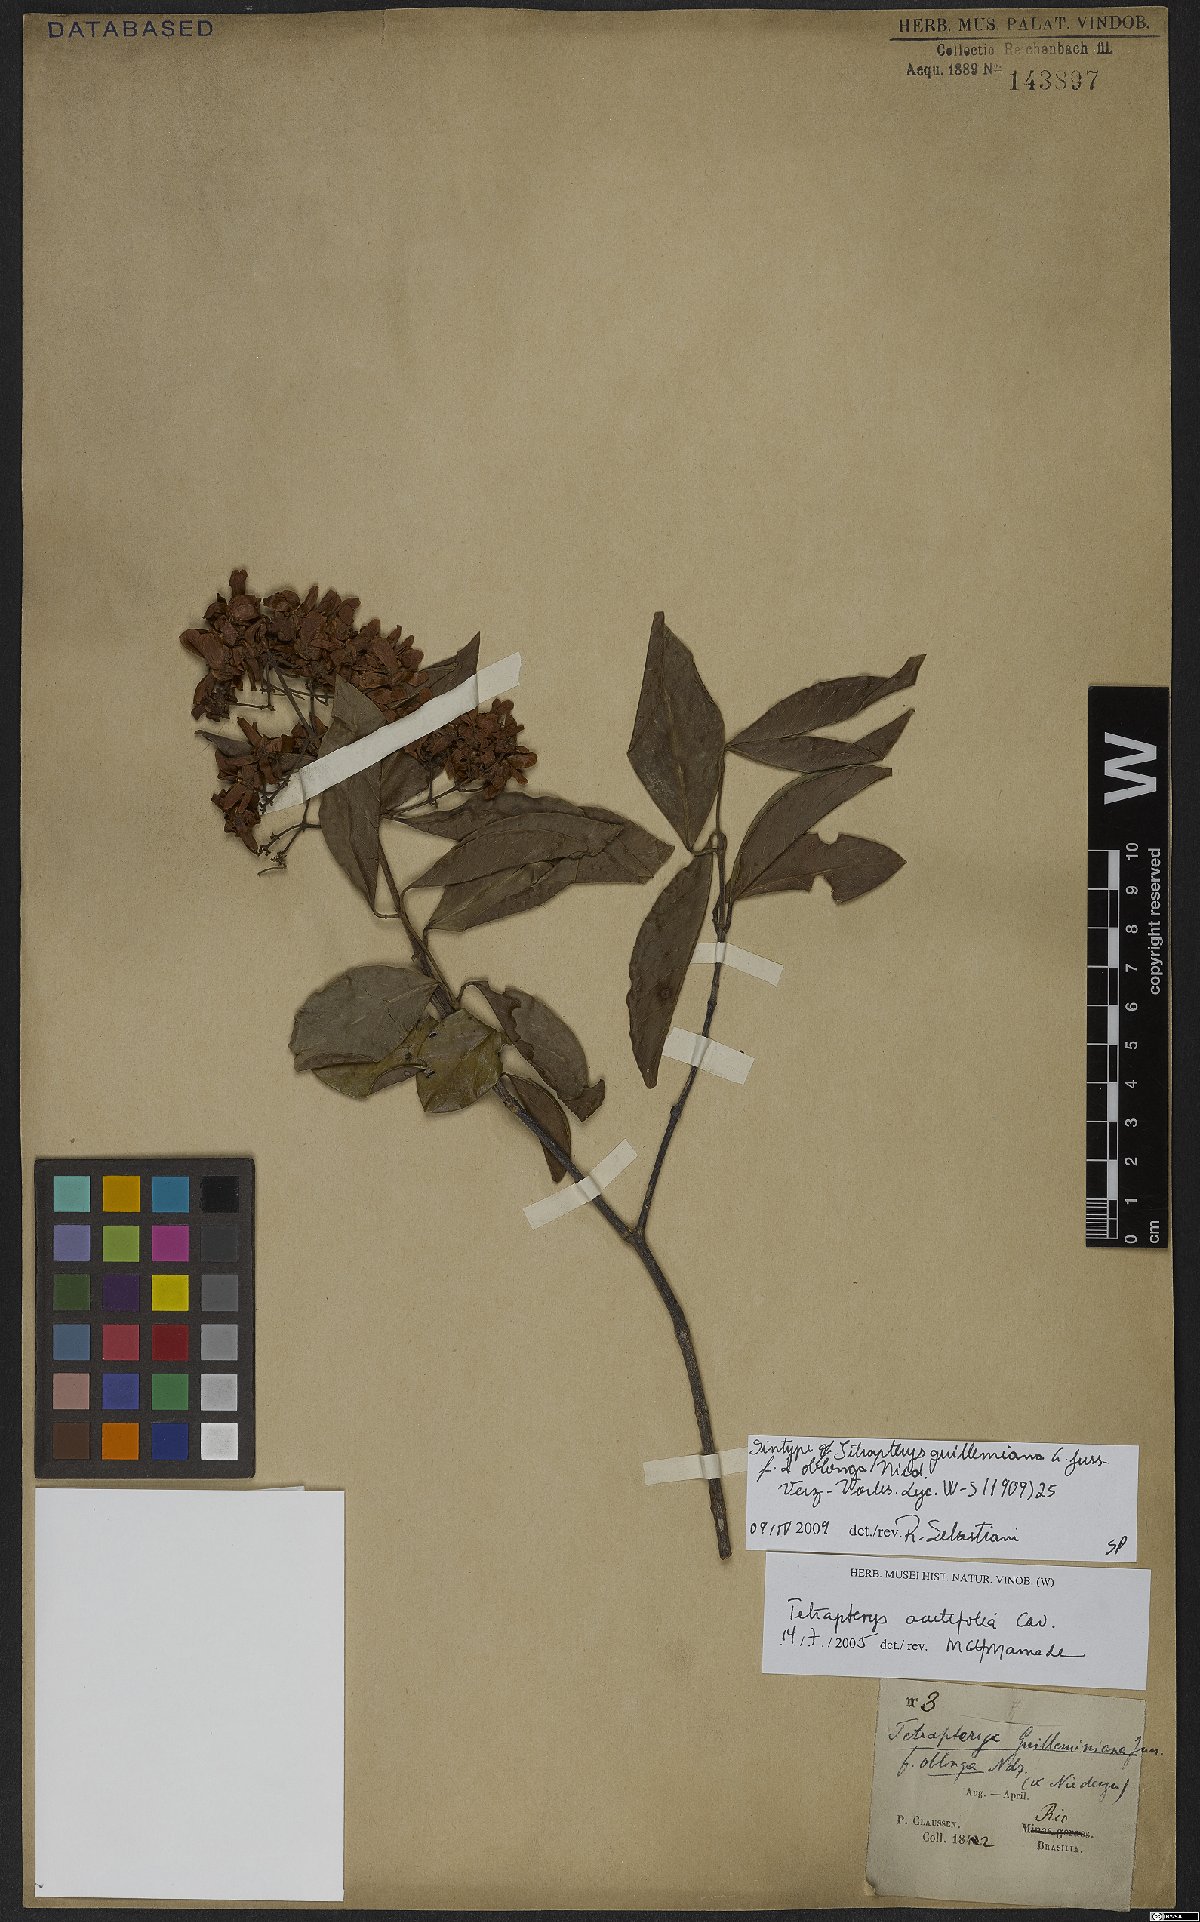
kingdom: Plantae
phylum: Tracheophyta
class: Magnoliopsida
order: Malpighiales
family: Malpighiaceae
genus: Niedenzuella
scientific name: Niedenzuella acutifolia
